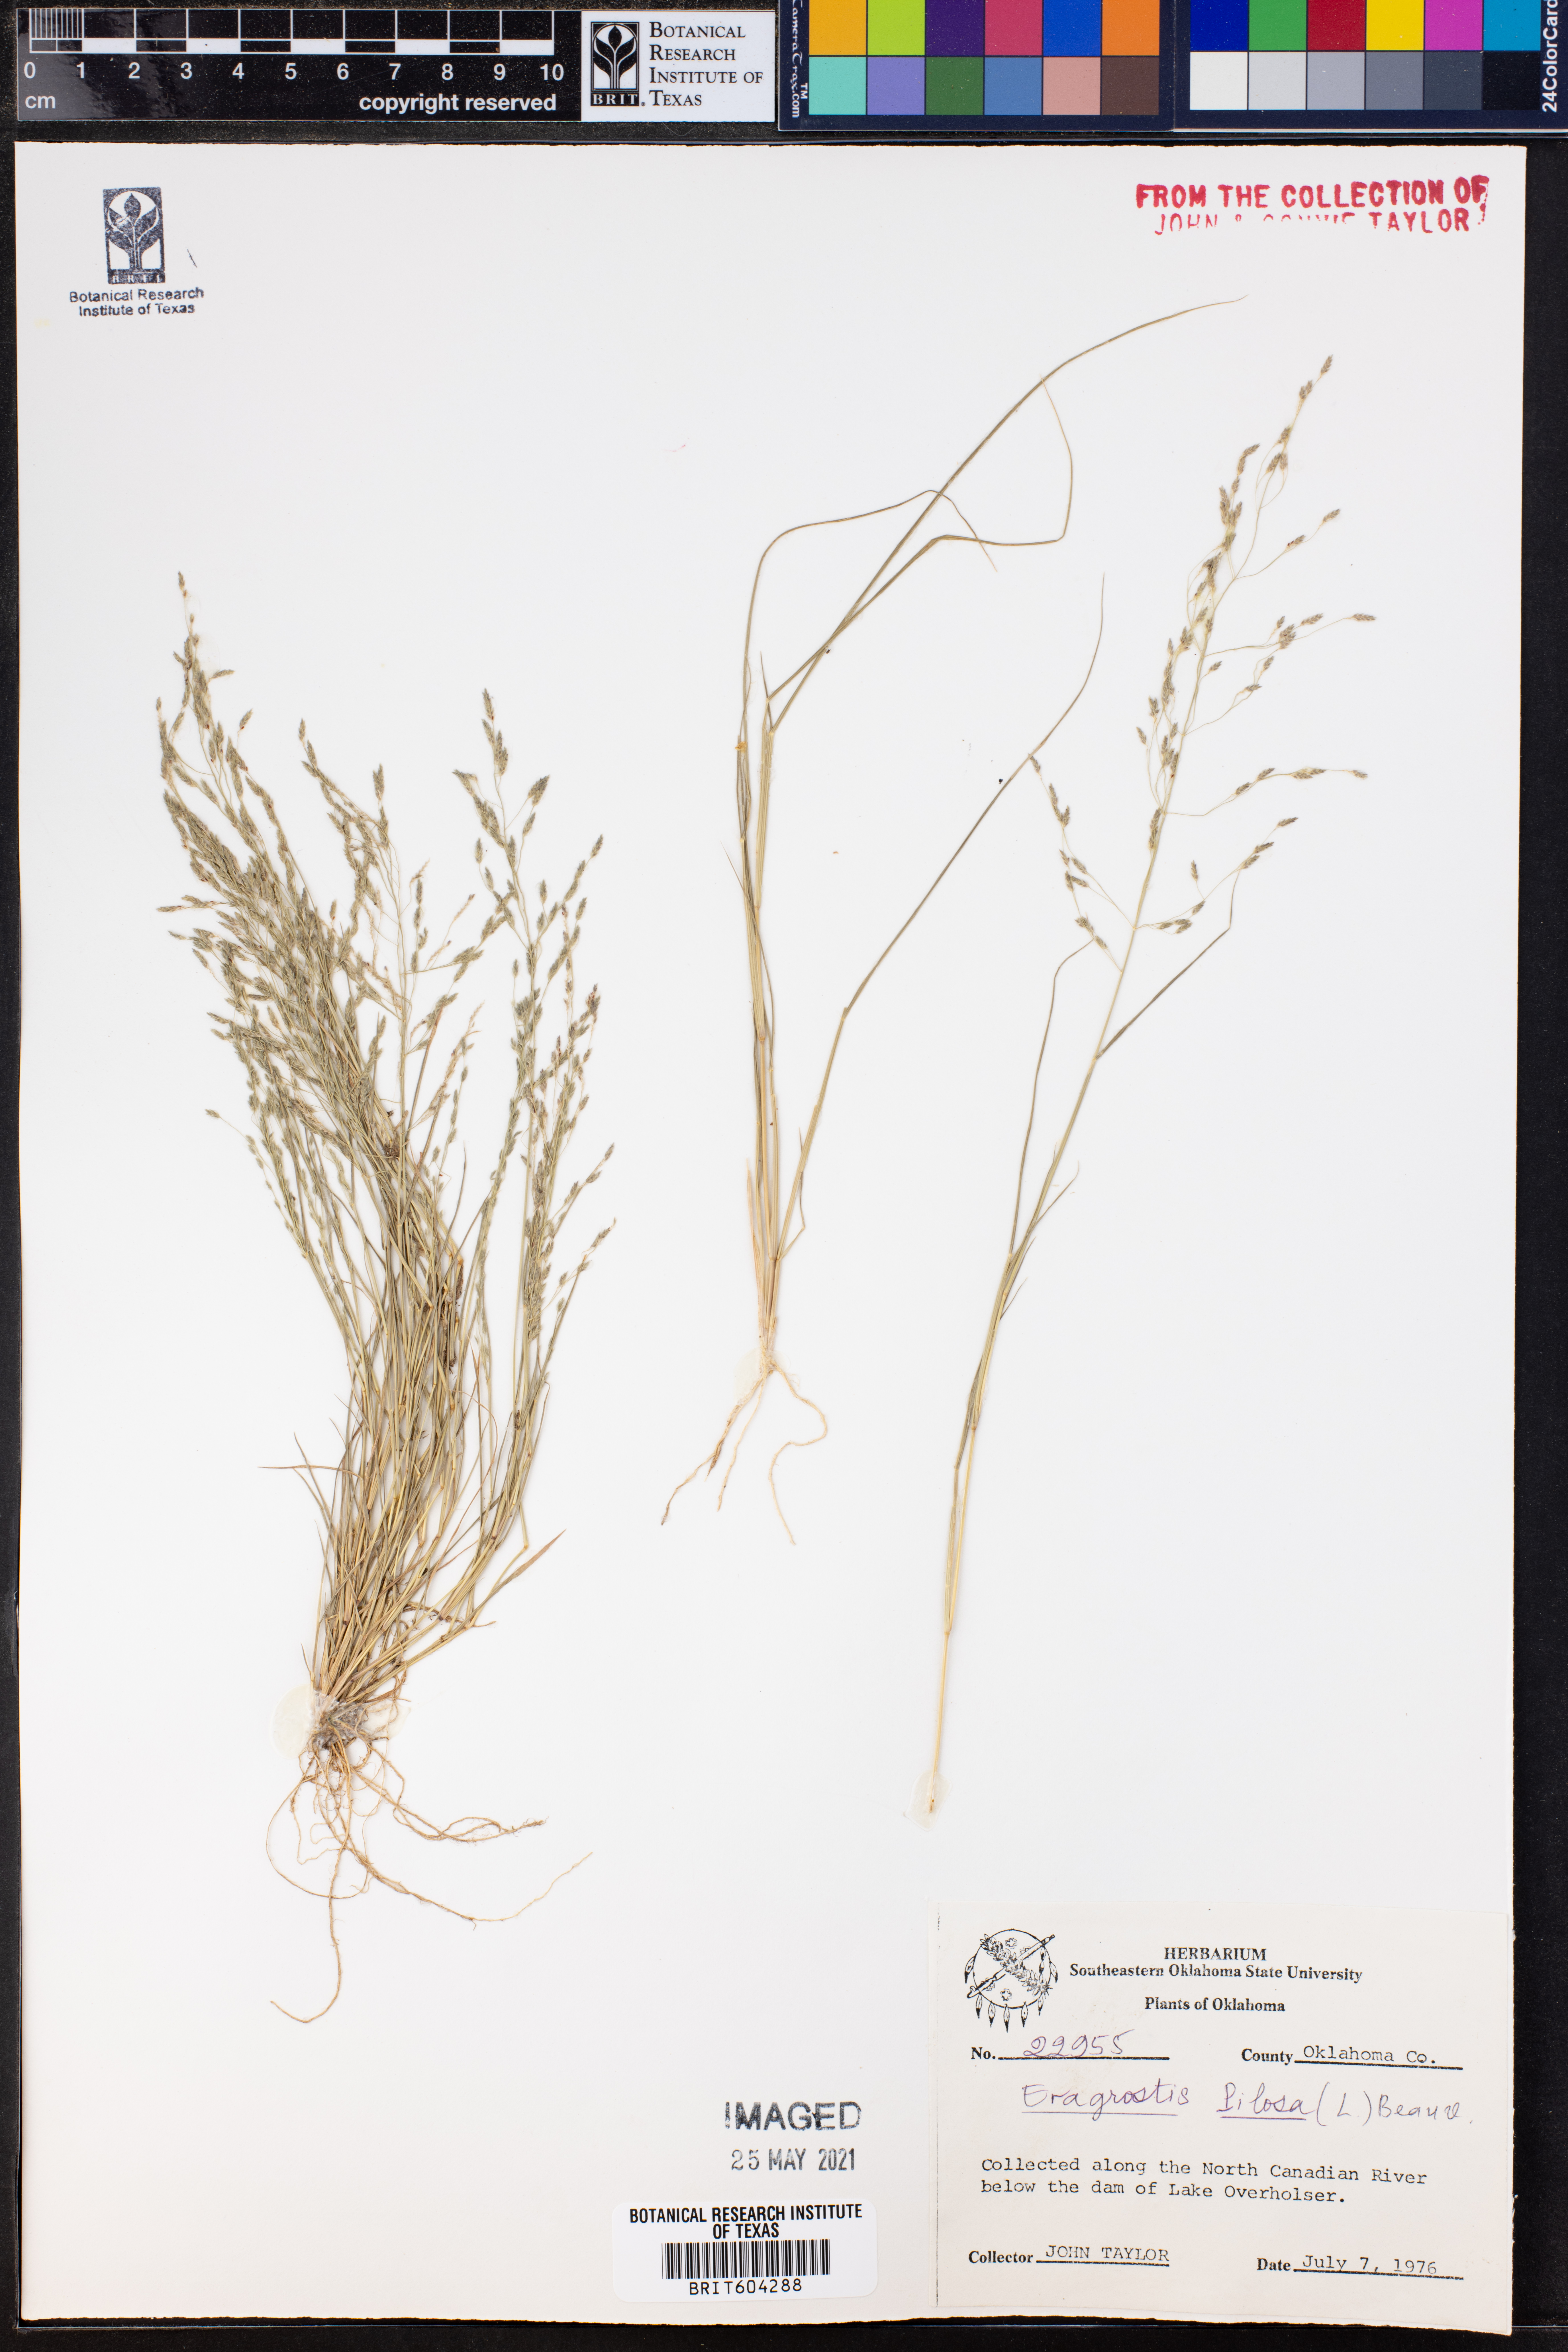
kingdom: Plantae
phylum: Tracheophyta
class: Liliopsida
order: Poales
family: Poaceae
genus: Eragrostis
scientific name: Eragrostis parviflora
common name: Weeping love-grass
